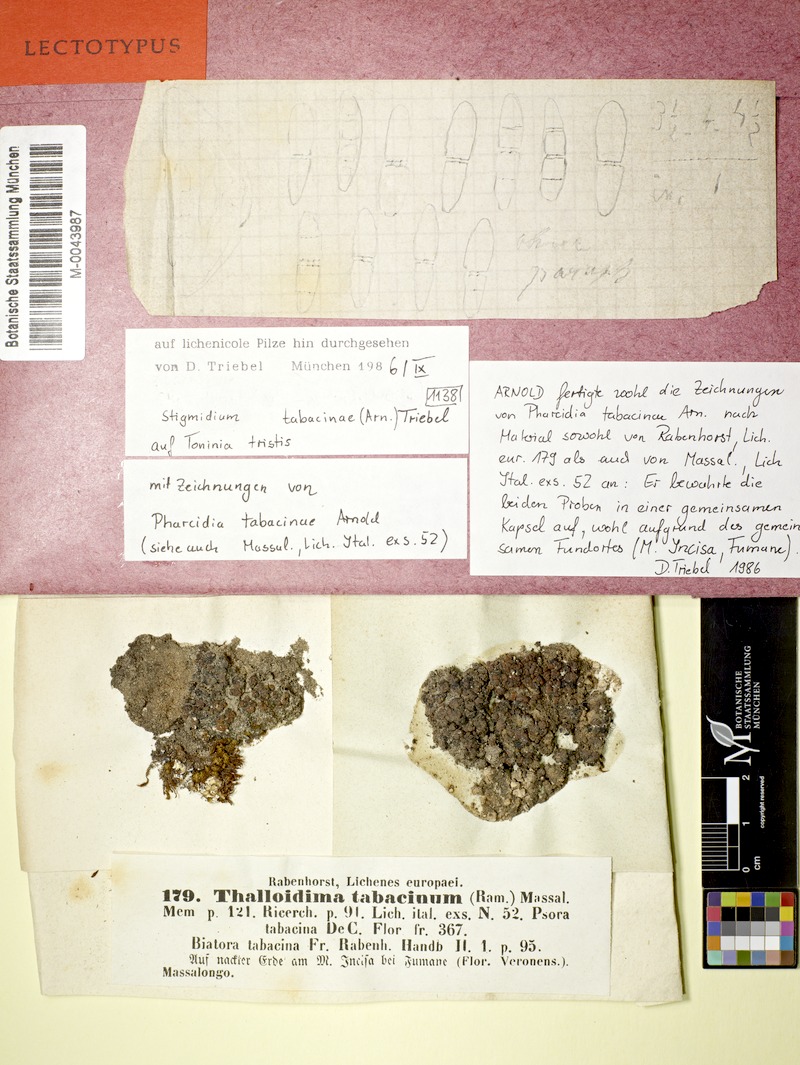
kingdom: Fungi
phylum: Ascomycota
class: Lecanoromycetes
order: Lecanorales
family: Ramalinaceae
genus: Toninia
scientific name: Toninia tristis
